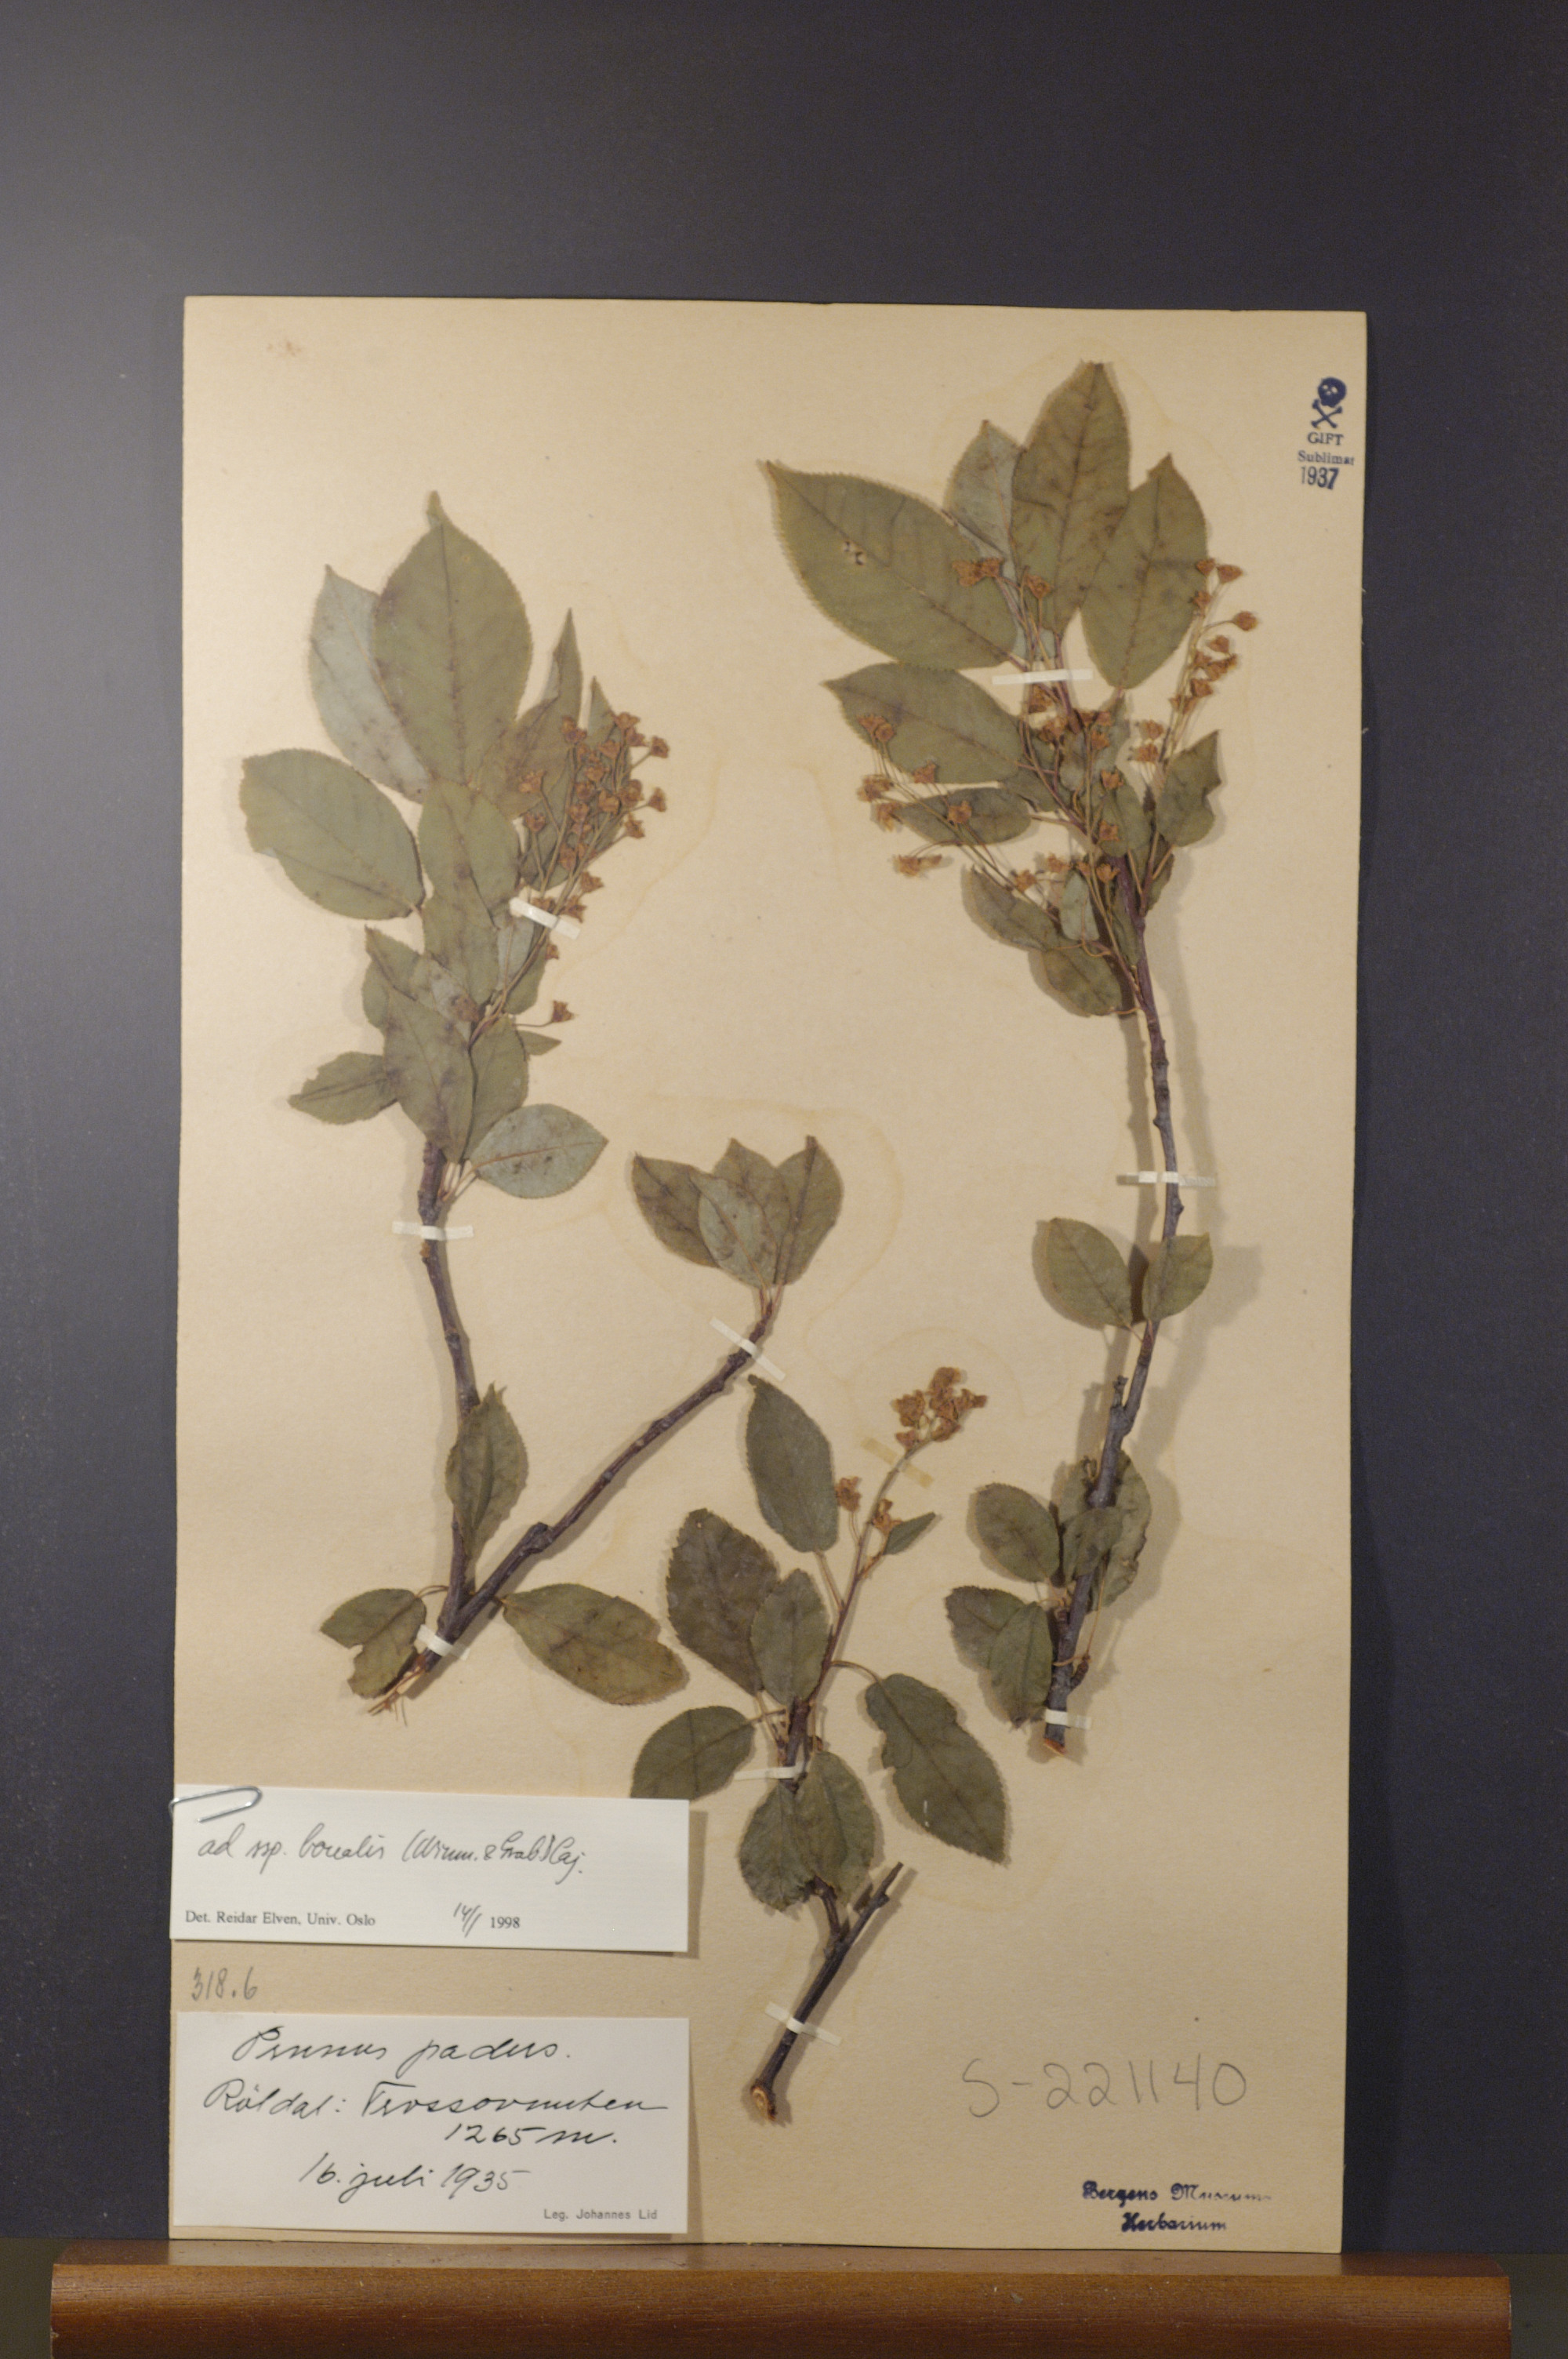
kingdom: Plantae
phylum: Tracheophyta
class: Magnoliopsida
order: Rosales
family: Rosaceae
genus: Prunus
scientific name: Prunus padus
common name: Bird cherry
